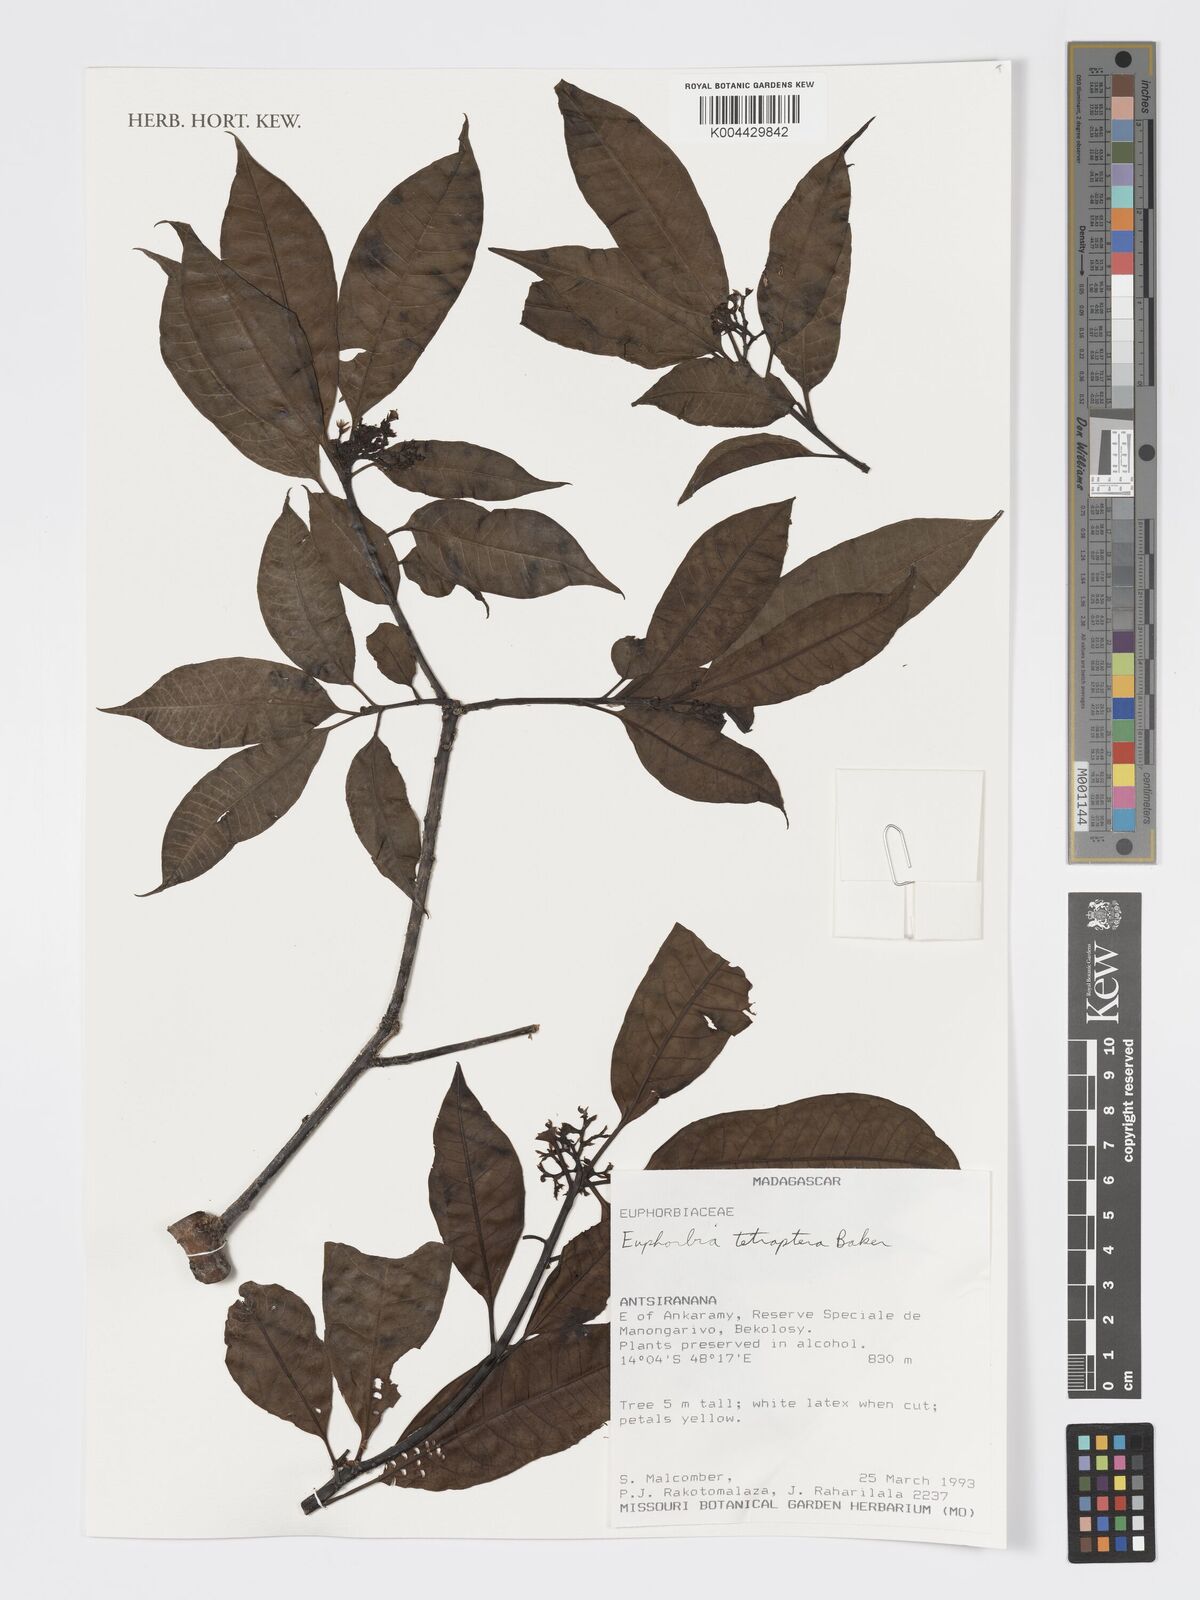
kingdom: Plantae
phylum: Tracheophyta
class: Magnoliopsida
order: Malpighiales
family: Euphorbiaceae
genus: Euphorbia
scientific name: Euphorbia tetraptera
